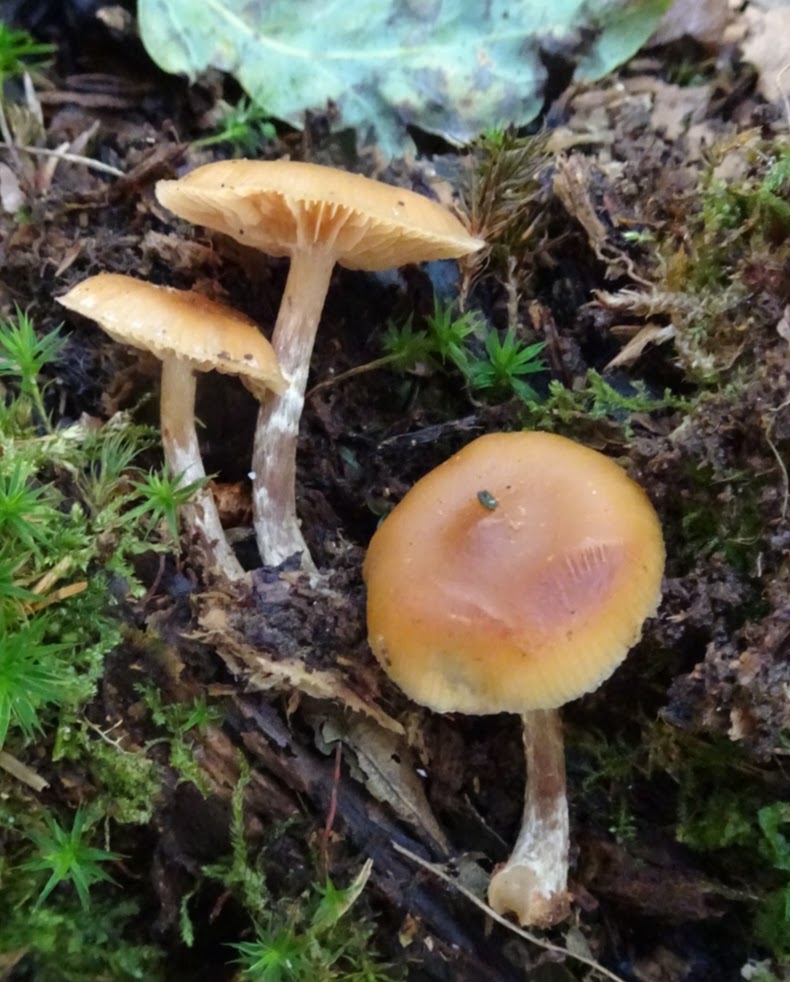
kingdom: Fungi
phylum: Basidiomycota
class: Agaricomycetes
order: Agaricales
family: Hymenogastraceae
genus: Galerina
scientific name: Galerina sideroides
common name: træflis-hjelmhat
